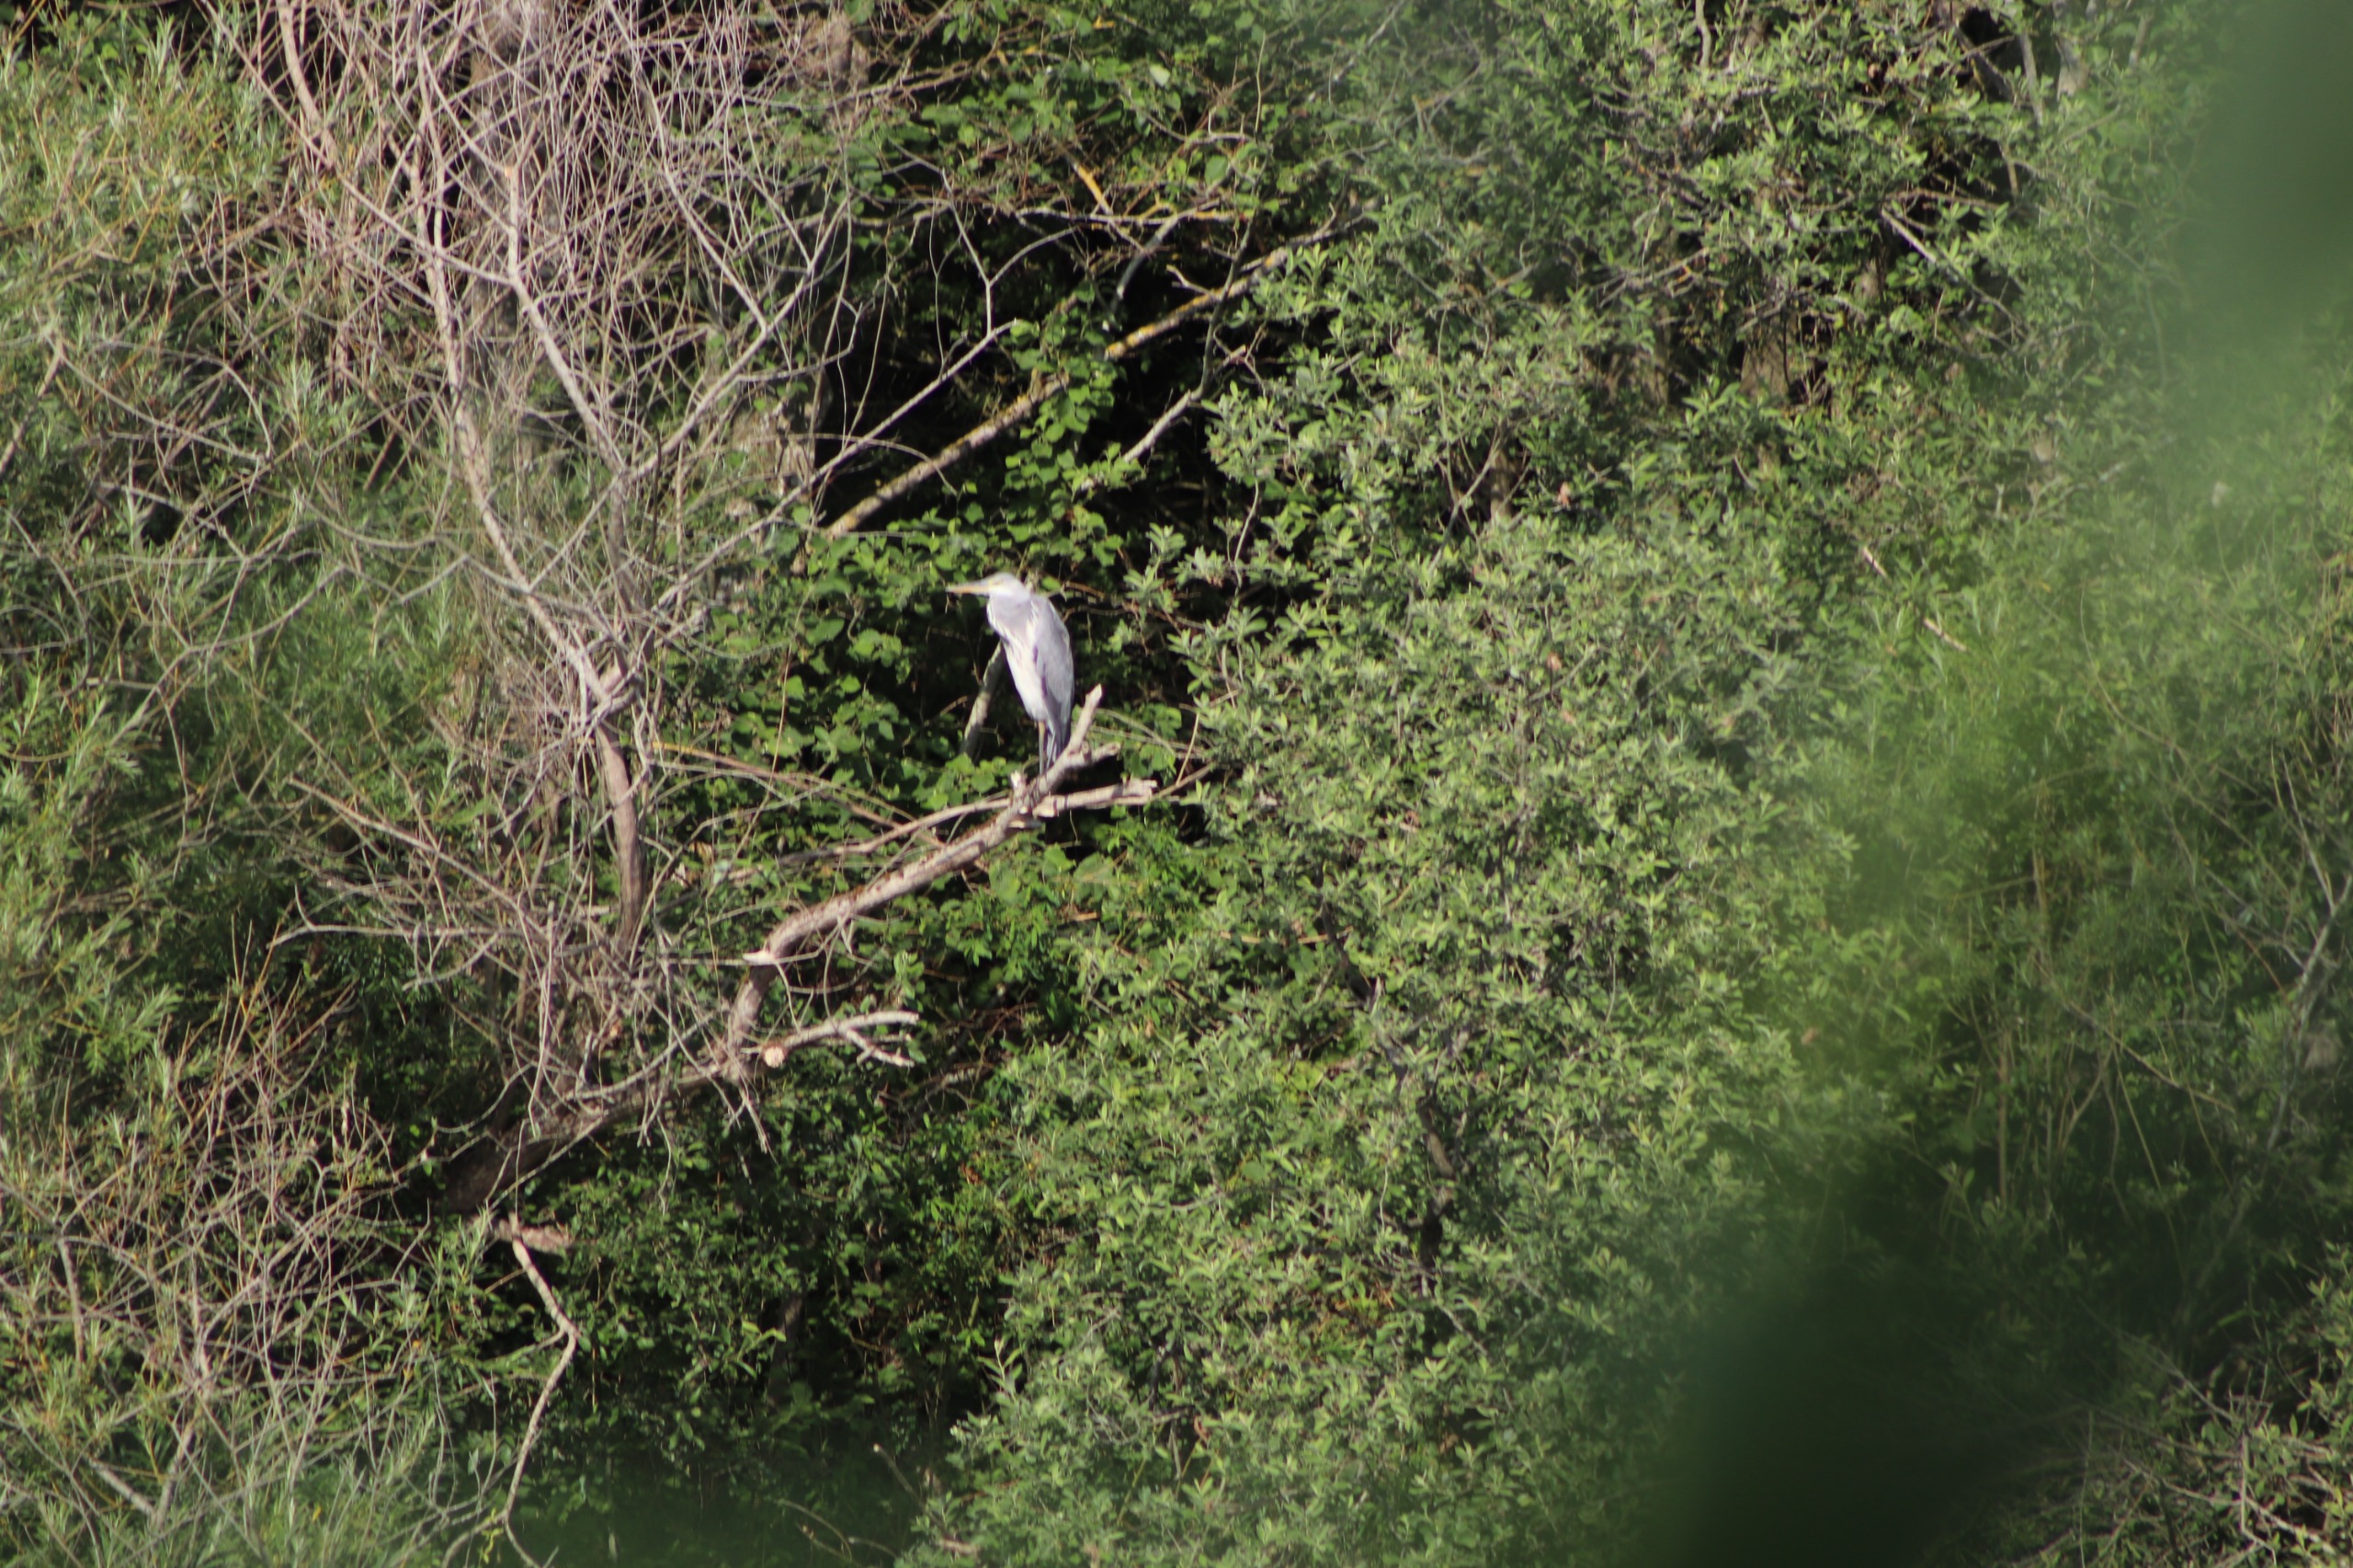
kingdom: Animalia
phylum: Chordata
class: Aves
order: Pelecaniformes
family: Ardeidae
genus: Ardea
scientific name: Ardea cinerea
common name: Fiskehejre
